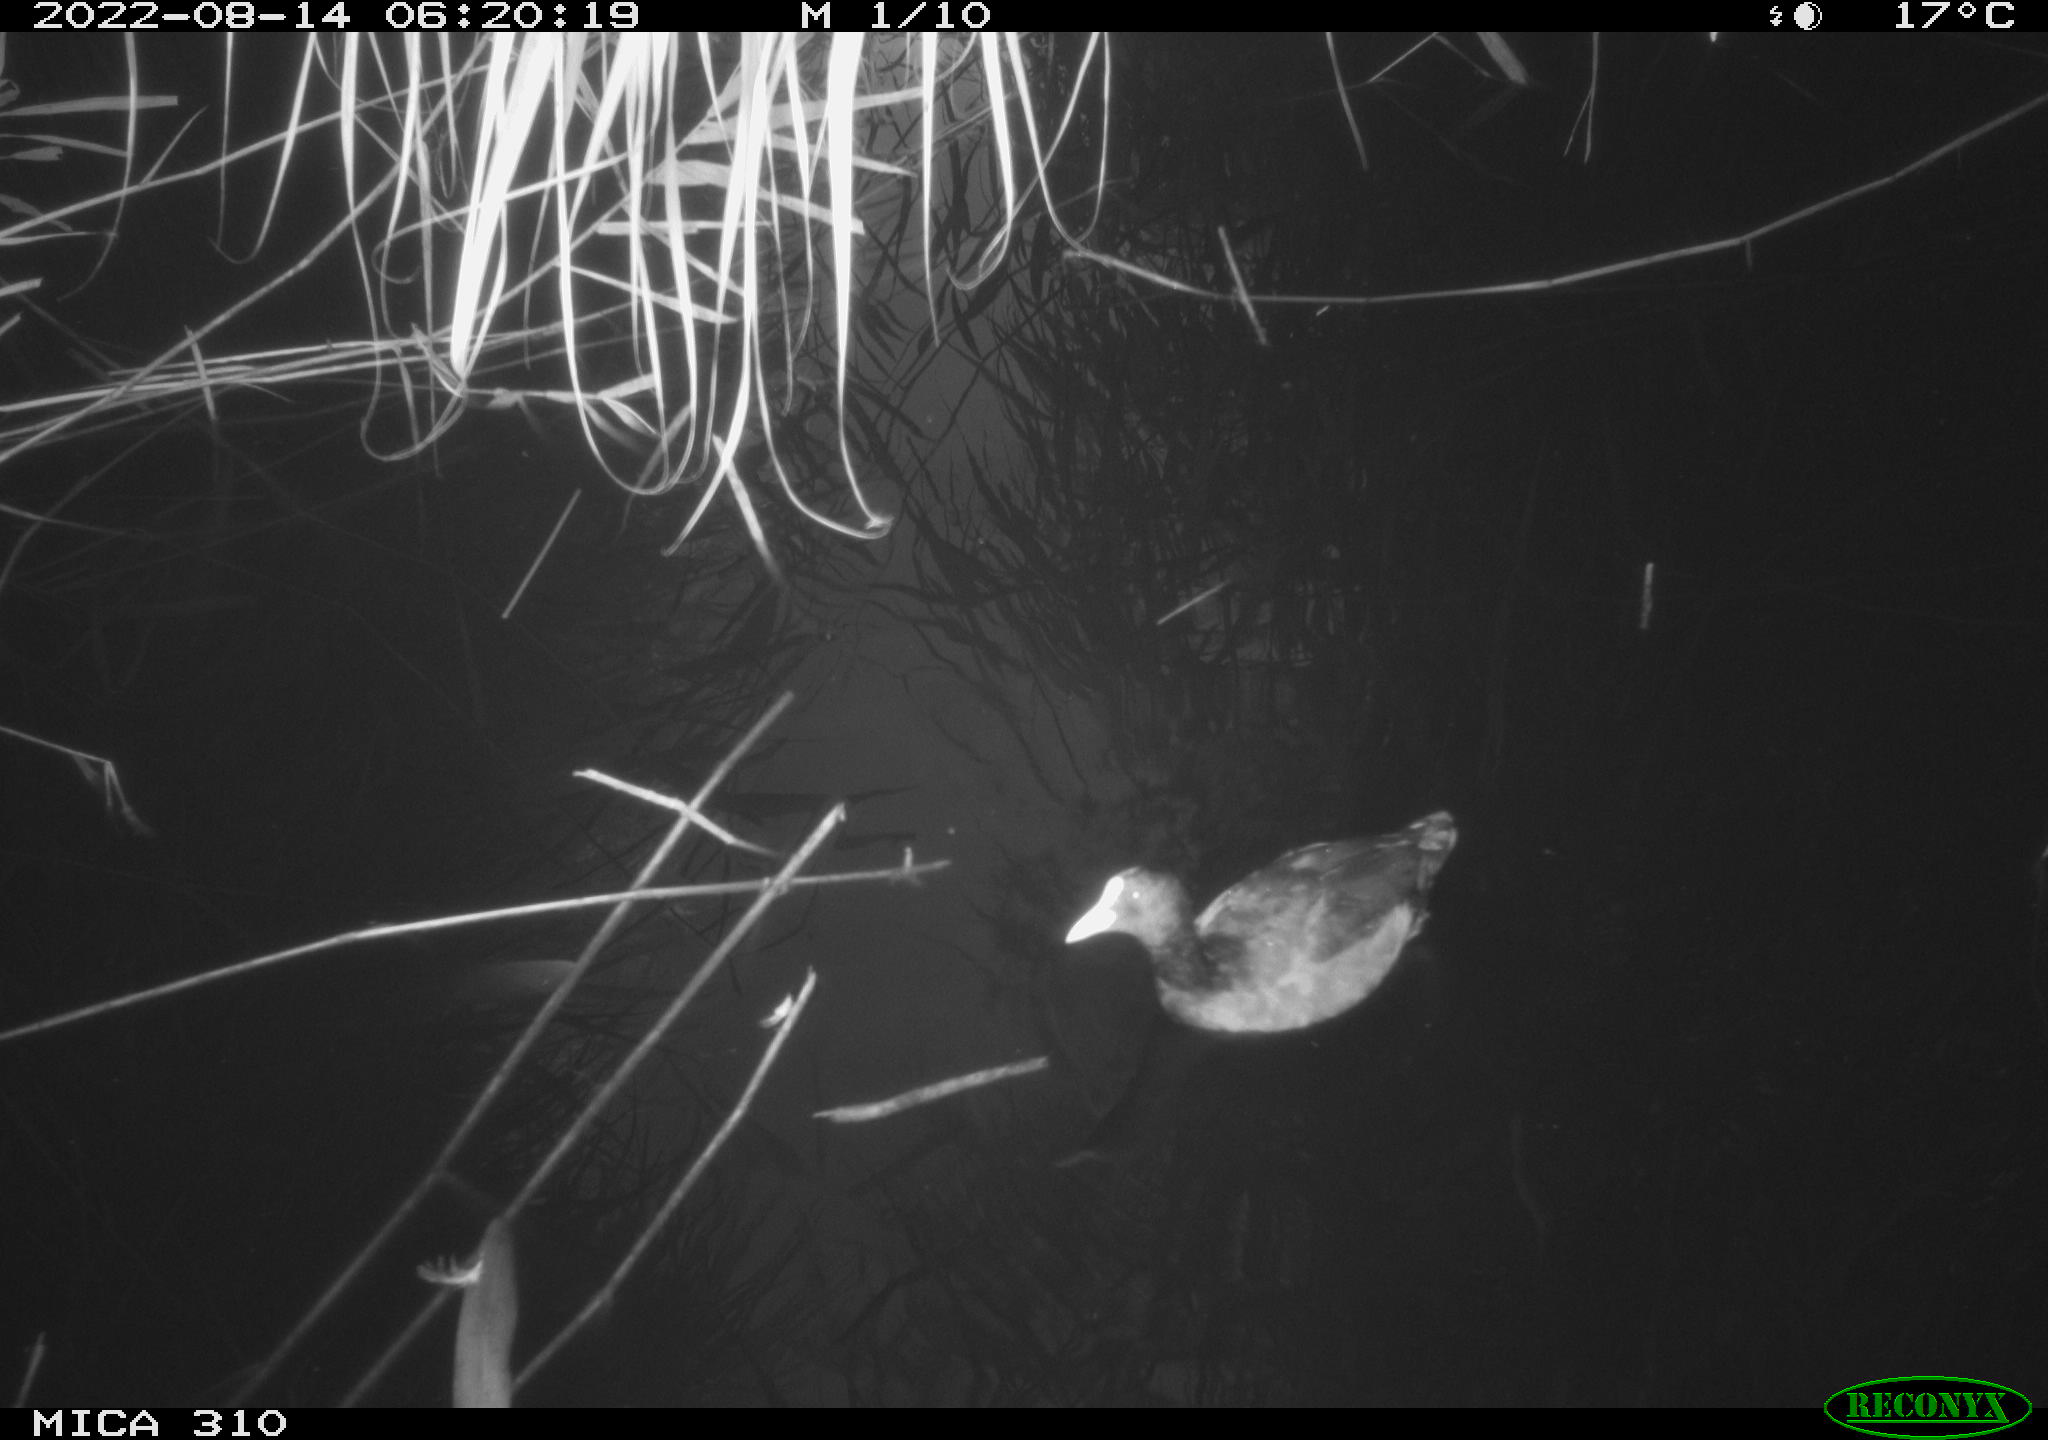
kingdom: Animalia
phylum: Chordata
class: Aves
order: Gruiformes
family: Rallidae
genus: Fulica
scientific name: Fulica atra
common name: Eurasian coot
